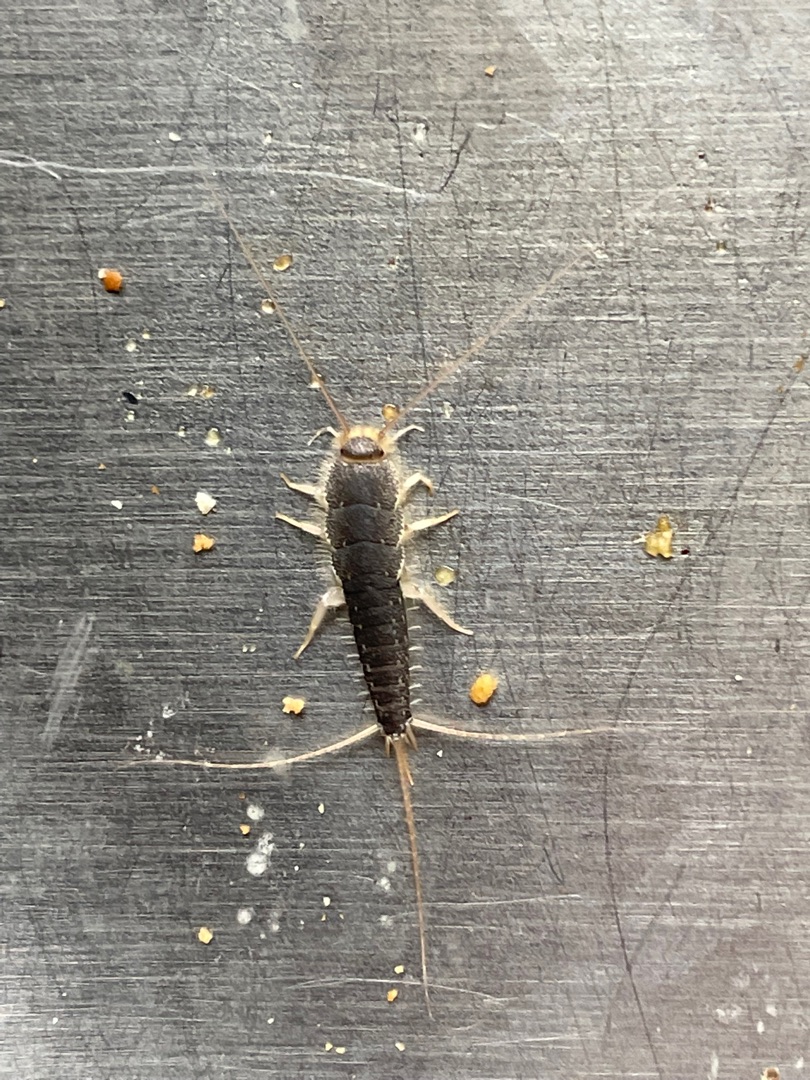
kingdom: Animalia
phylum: Arthropoda
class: Insecta
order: Zygentoma
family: Lepismatidae
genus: Ctenolepisma
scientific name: Ctenolepisma longicaudatum
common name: Skægget sølvkræ
